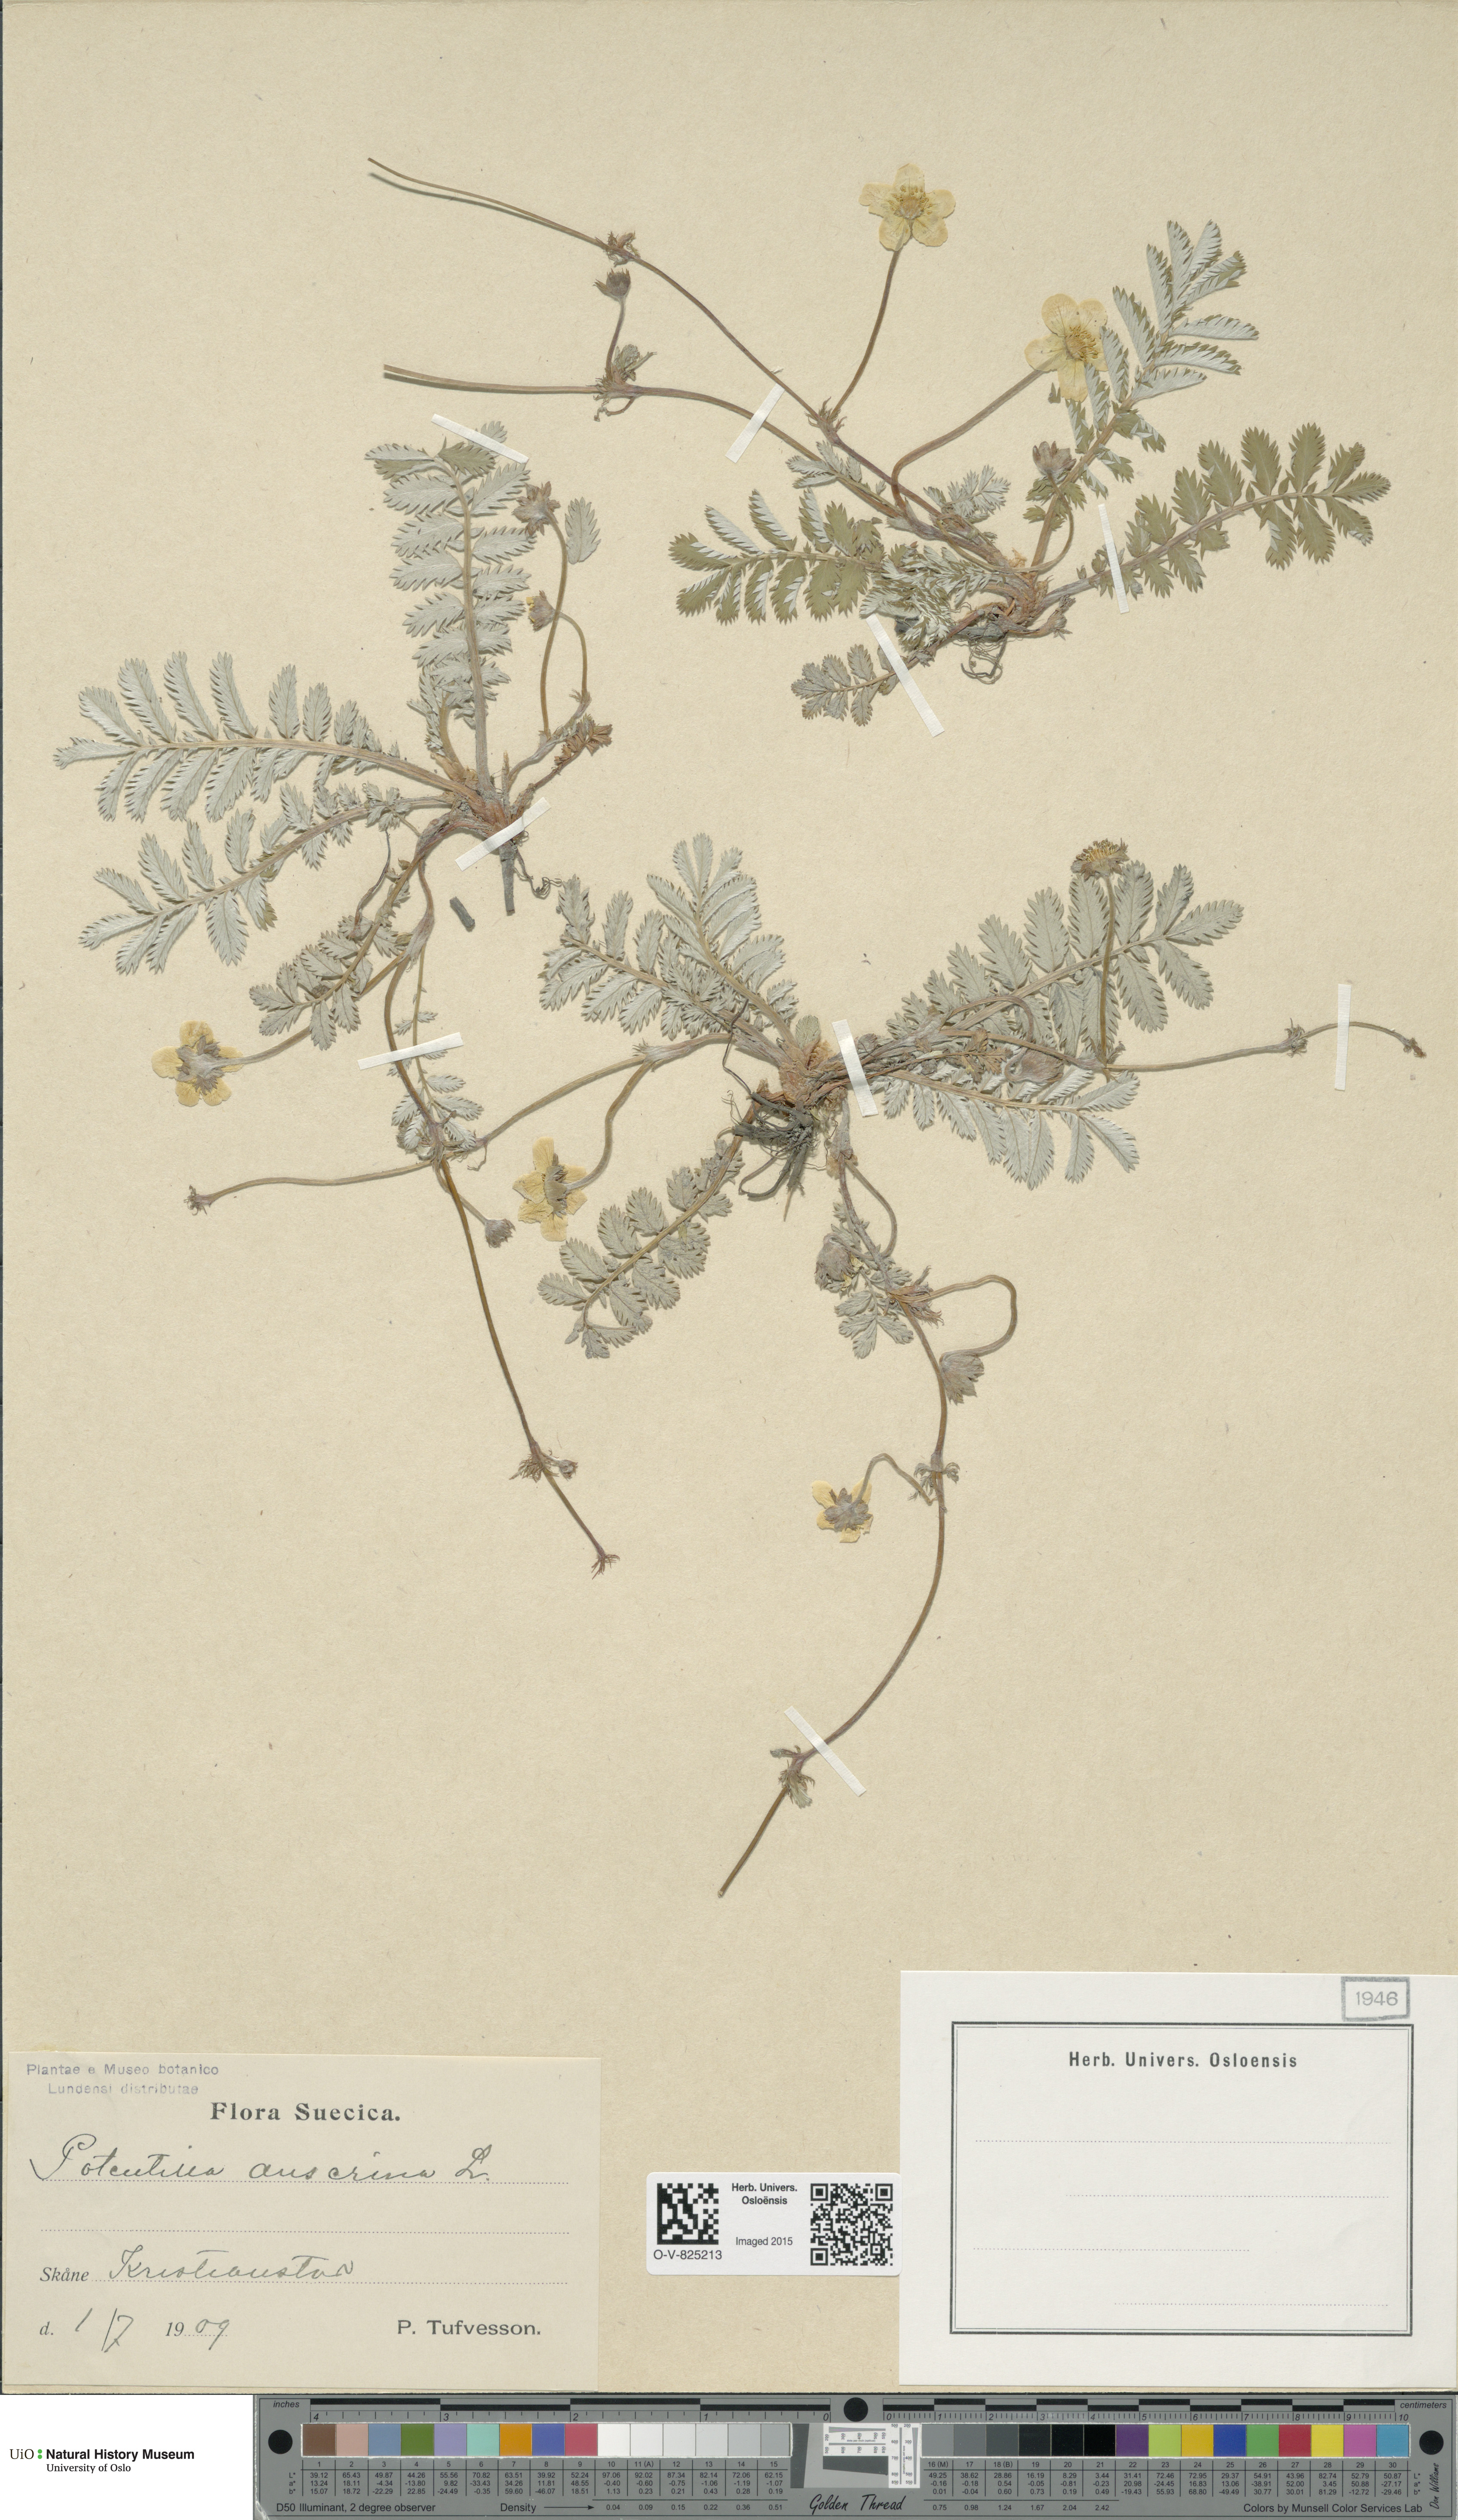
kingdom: Plantae
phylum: Tracheophyta
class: Magnoliopsida
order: Rosales
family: Rosaceae
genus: Argentina
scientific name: Argentina anserina
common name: Common silverweed
